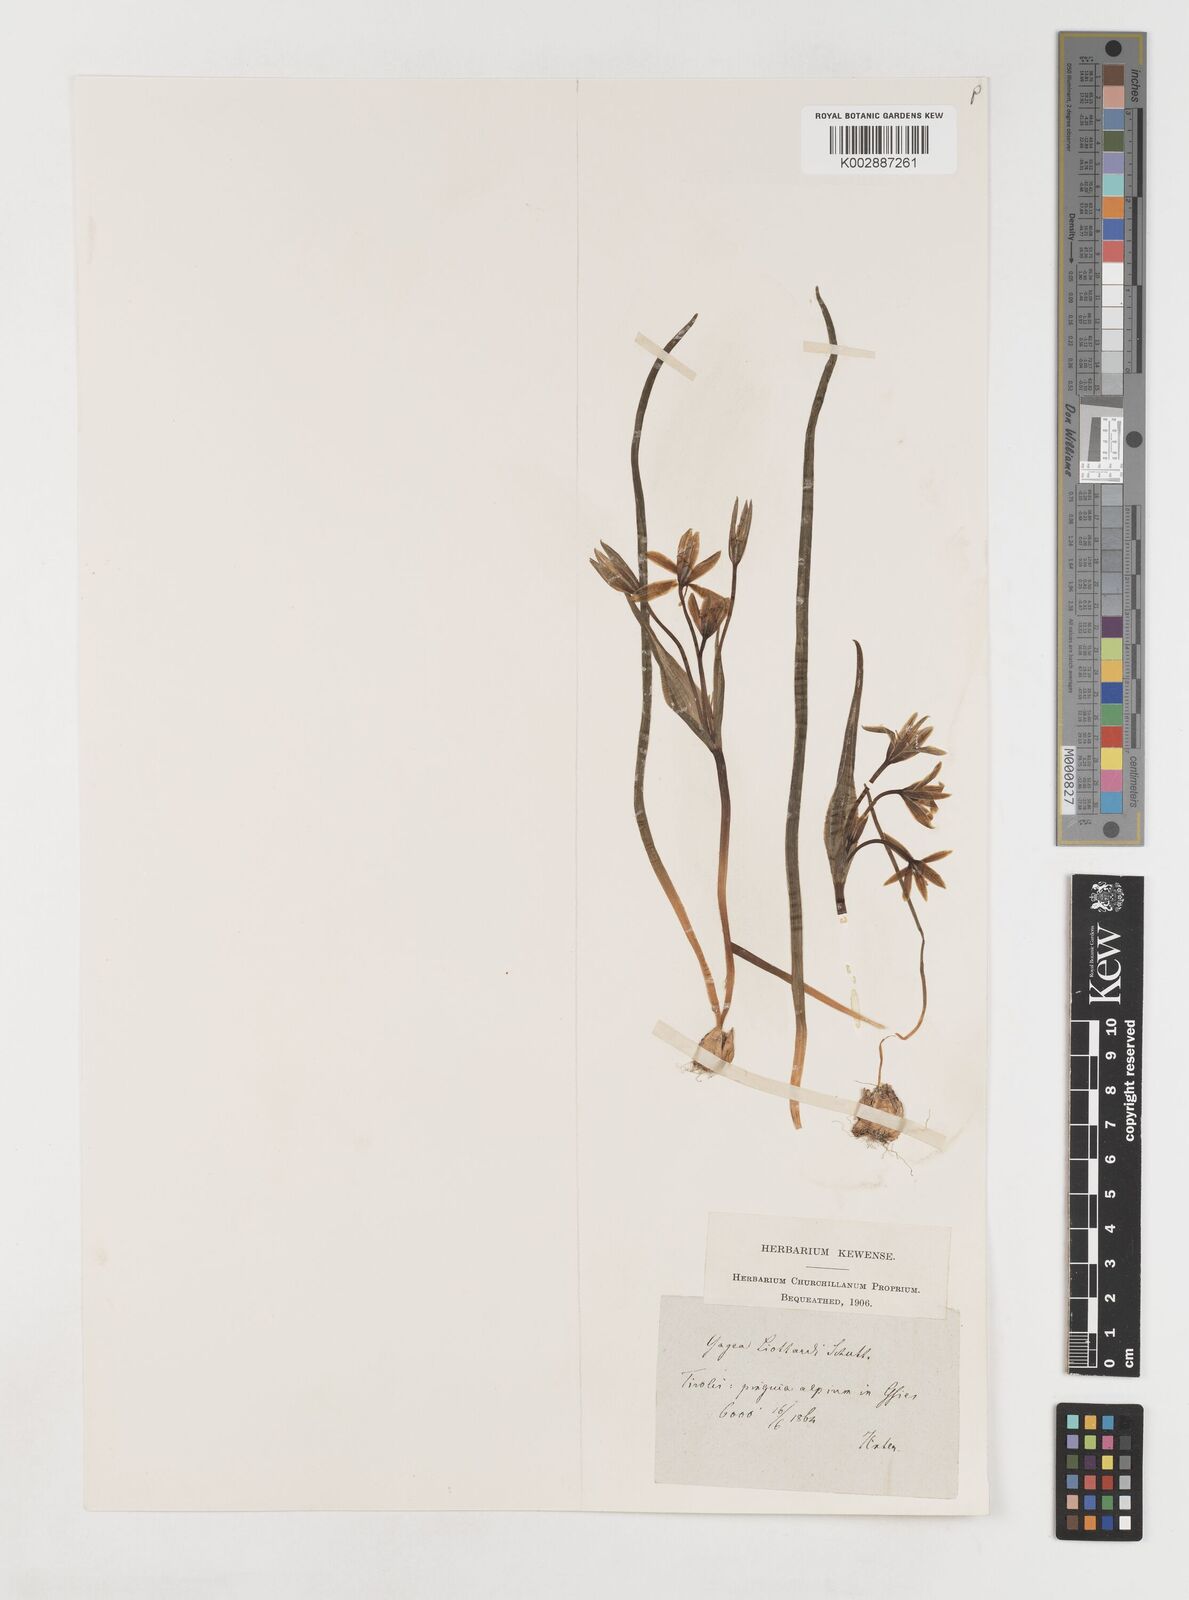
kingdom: Plantae
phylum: Tracheophyta
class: Liliopsida
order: Liliales
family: Liliaceae
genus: Gagea
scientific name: Gagea bohemica
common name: Early star-of-bethlehem
